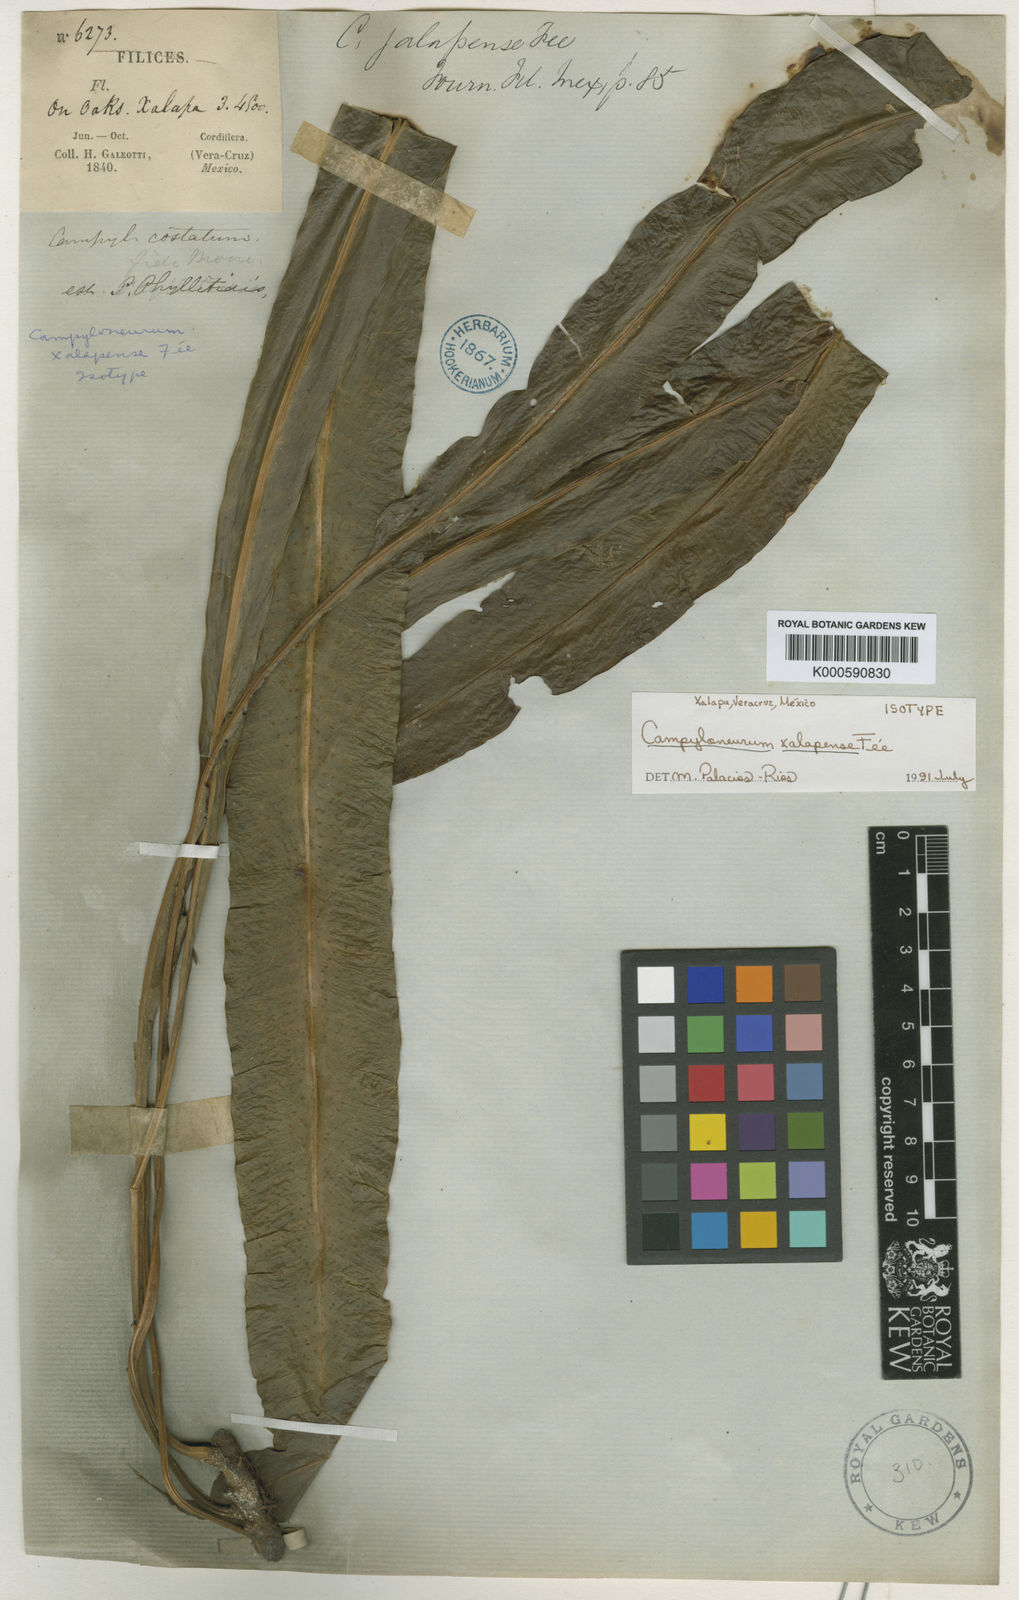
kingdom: Plantae
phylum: Tracheophyta
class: Polypodiopsida
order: Polypodiales
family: Polypodiaceae
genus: Campyloneurum
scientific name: Campyloneurum
